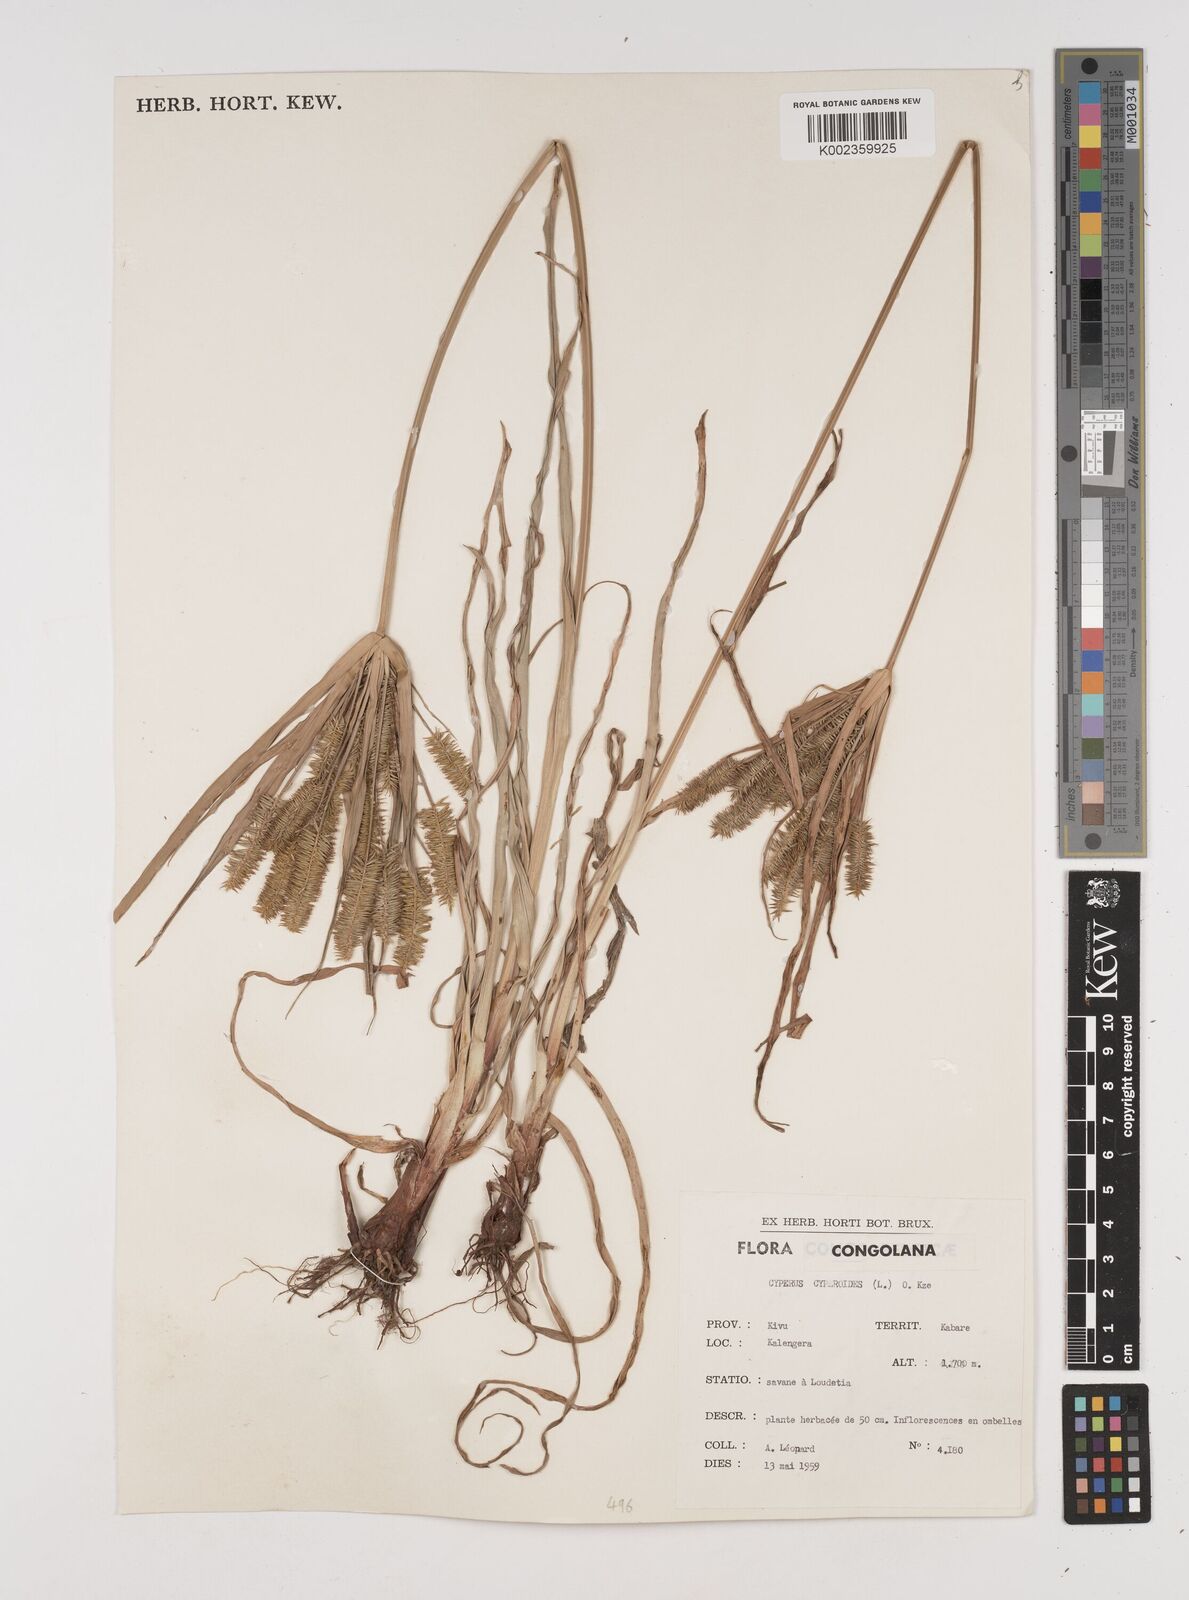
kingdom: Plantae
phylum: Tracheophyta
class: Liliopsida
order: Poales
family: Cyperaceae
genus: Cyperus
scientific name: Cyperus cyperoides
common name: Pacific island flat sedge
